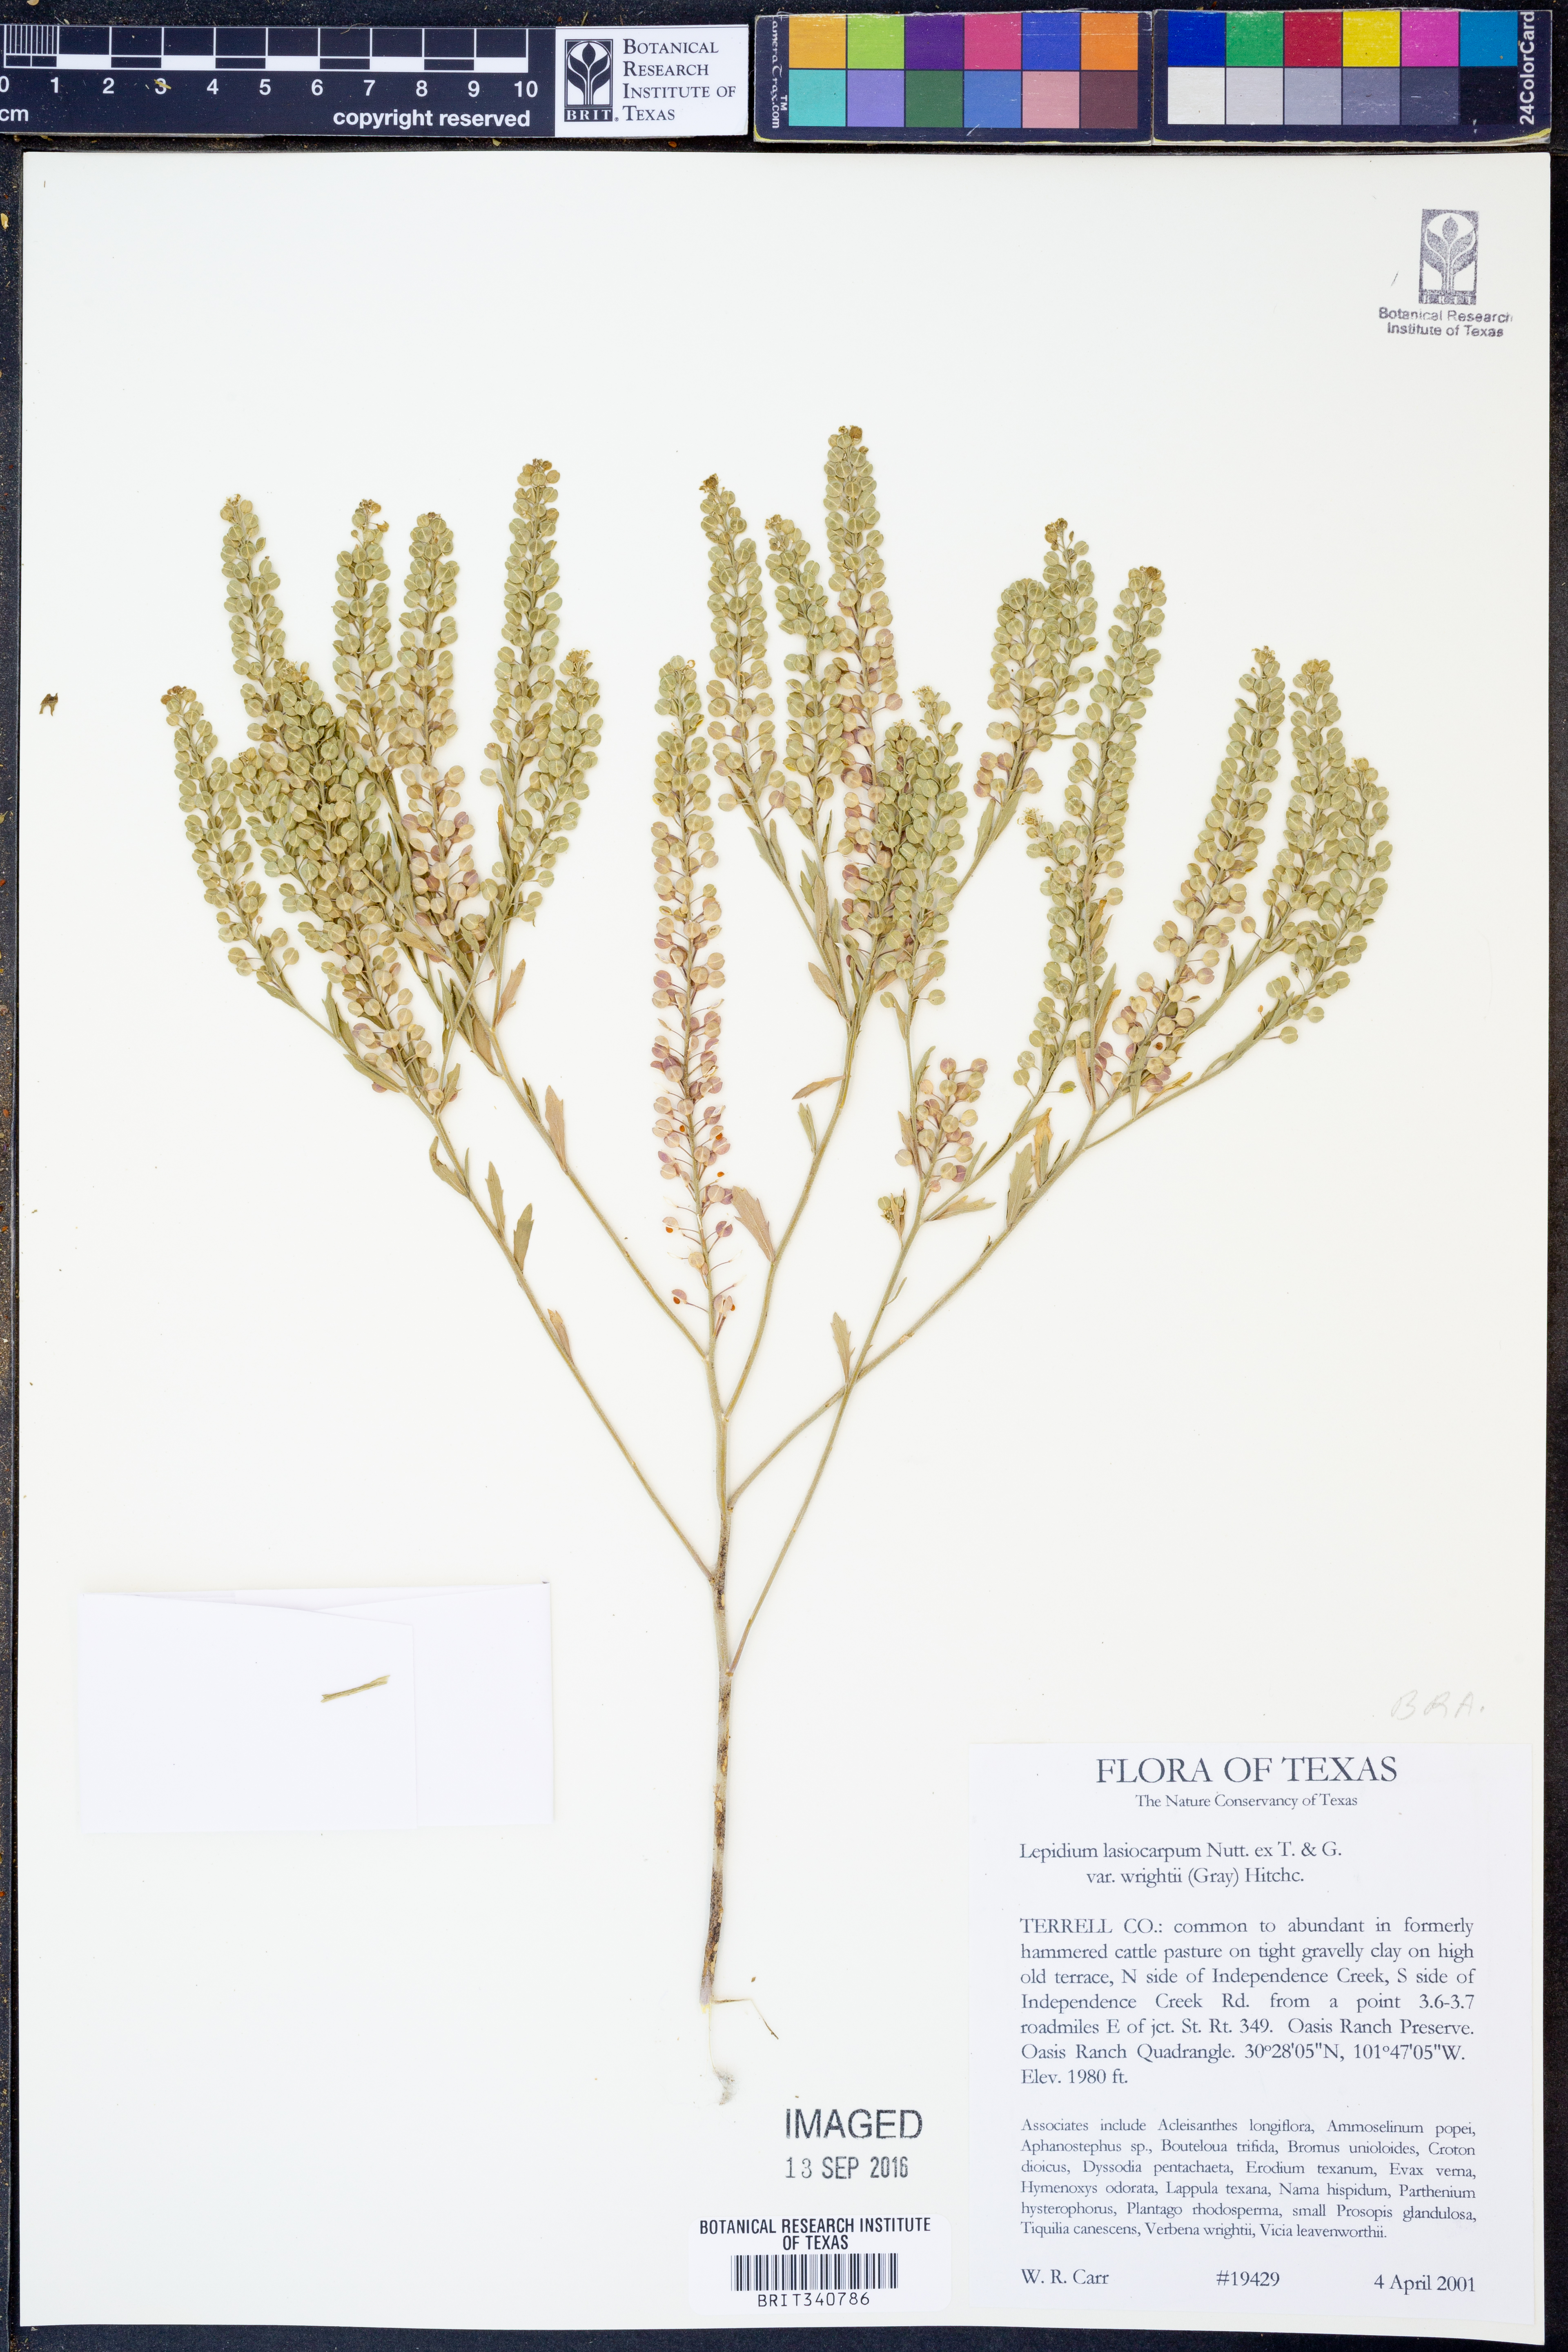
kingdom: Plantae
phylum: Tracheophyta
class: Magnoliopsida
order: Brassicales
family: Brassicaceae
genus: Lepidium
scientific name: Lepidium lasiocarpum
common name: Hairy-pod pepperwort
